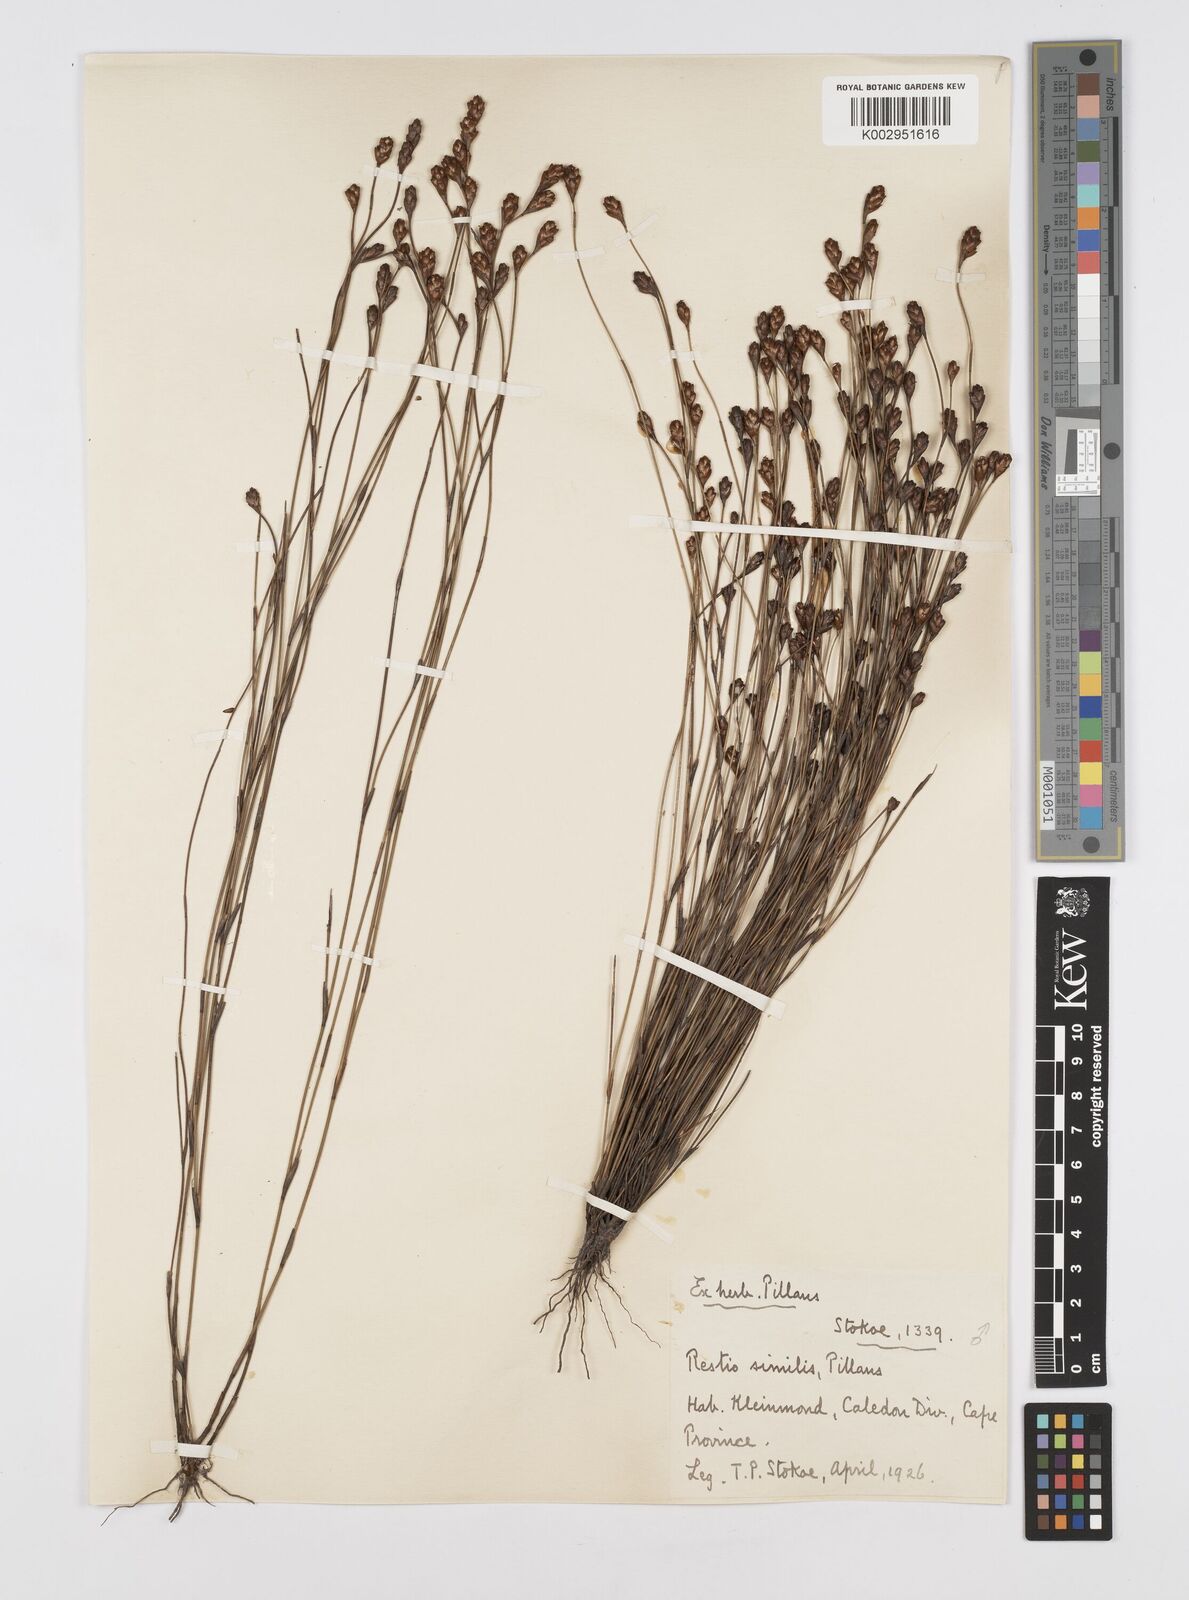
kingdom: Plantae
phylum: Tracheophyta
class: Liliopsida
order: Poales
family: Restionaceae
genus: Restio
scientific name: Restio similis
